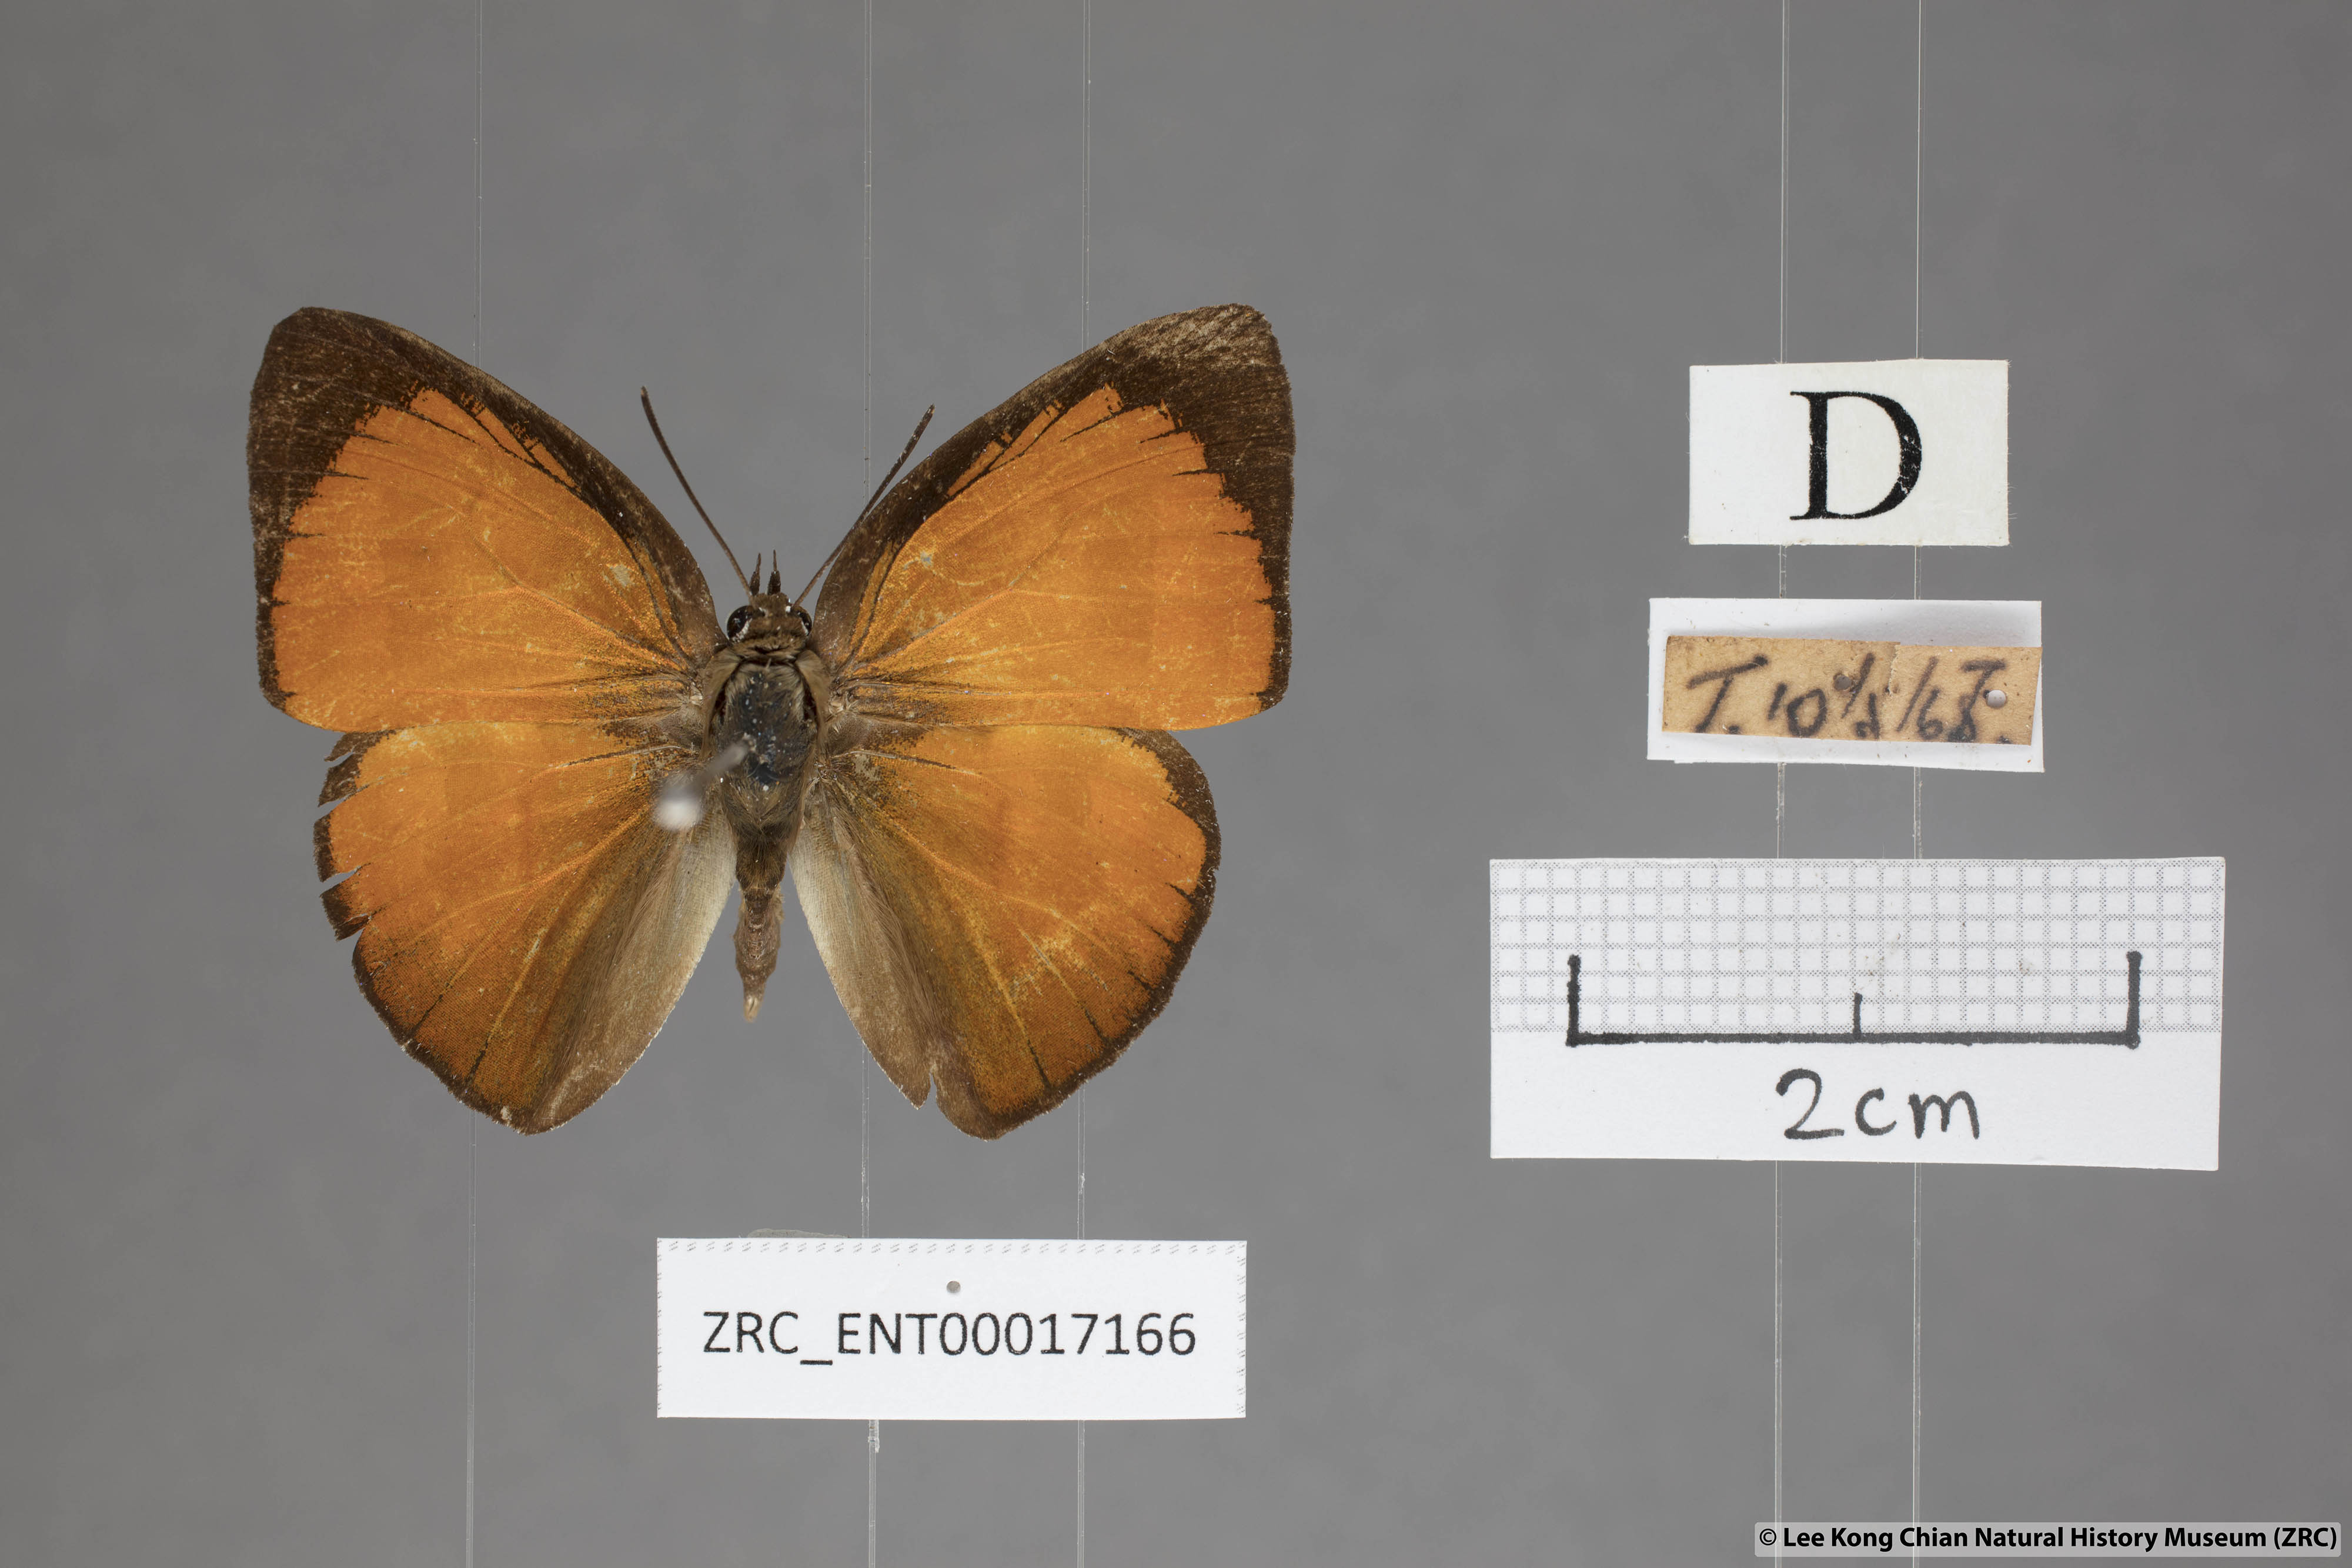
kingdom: Animalia
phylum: Arthropoda
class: Insecta
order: Lepidoptera
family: Lycaenidae
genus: Curetis
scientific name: Curetis tagalica
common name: Southern sunbeam
